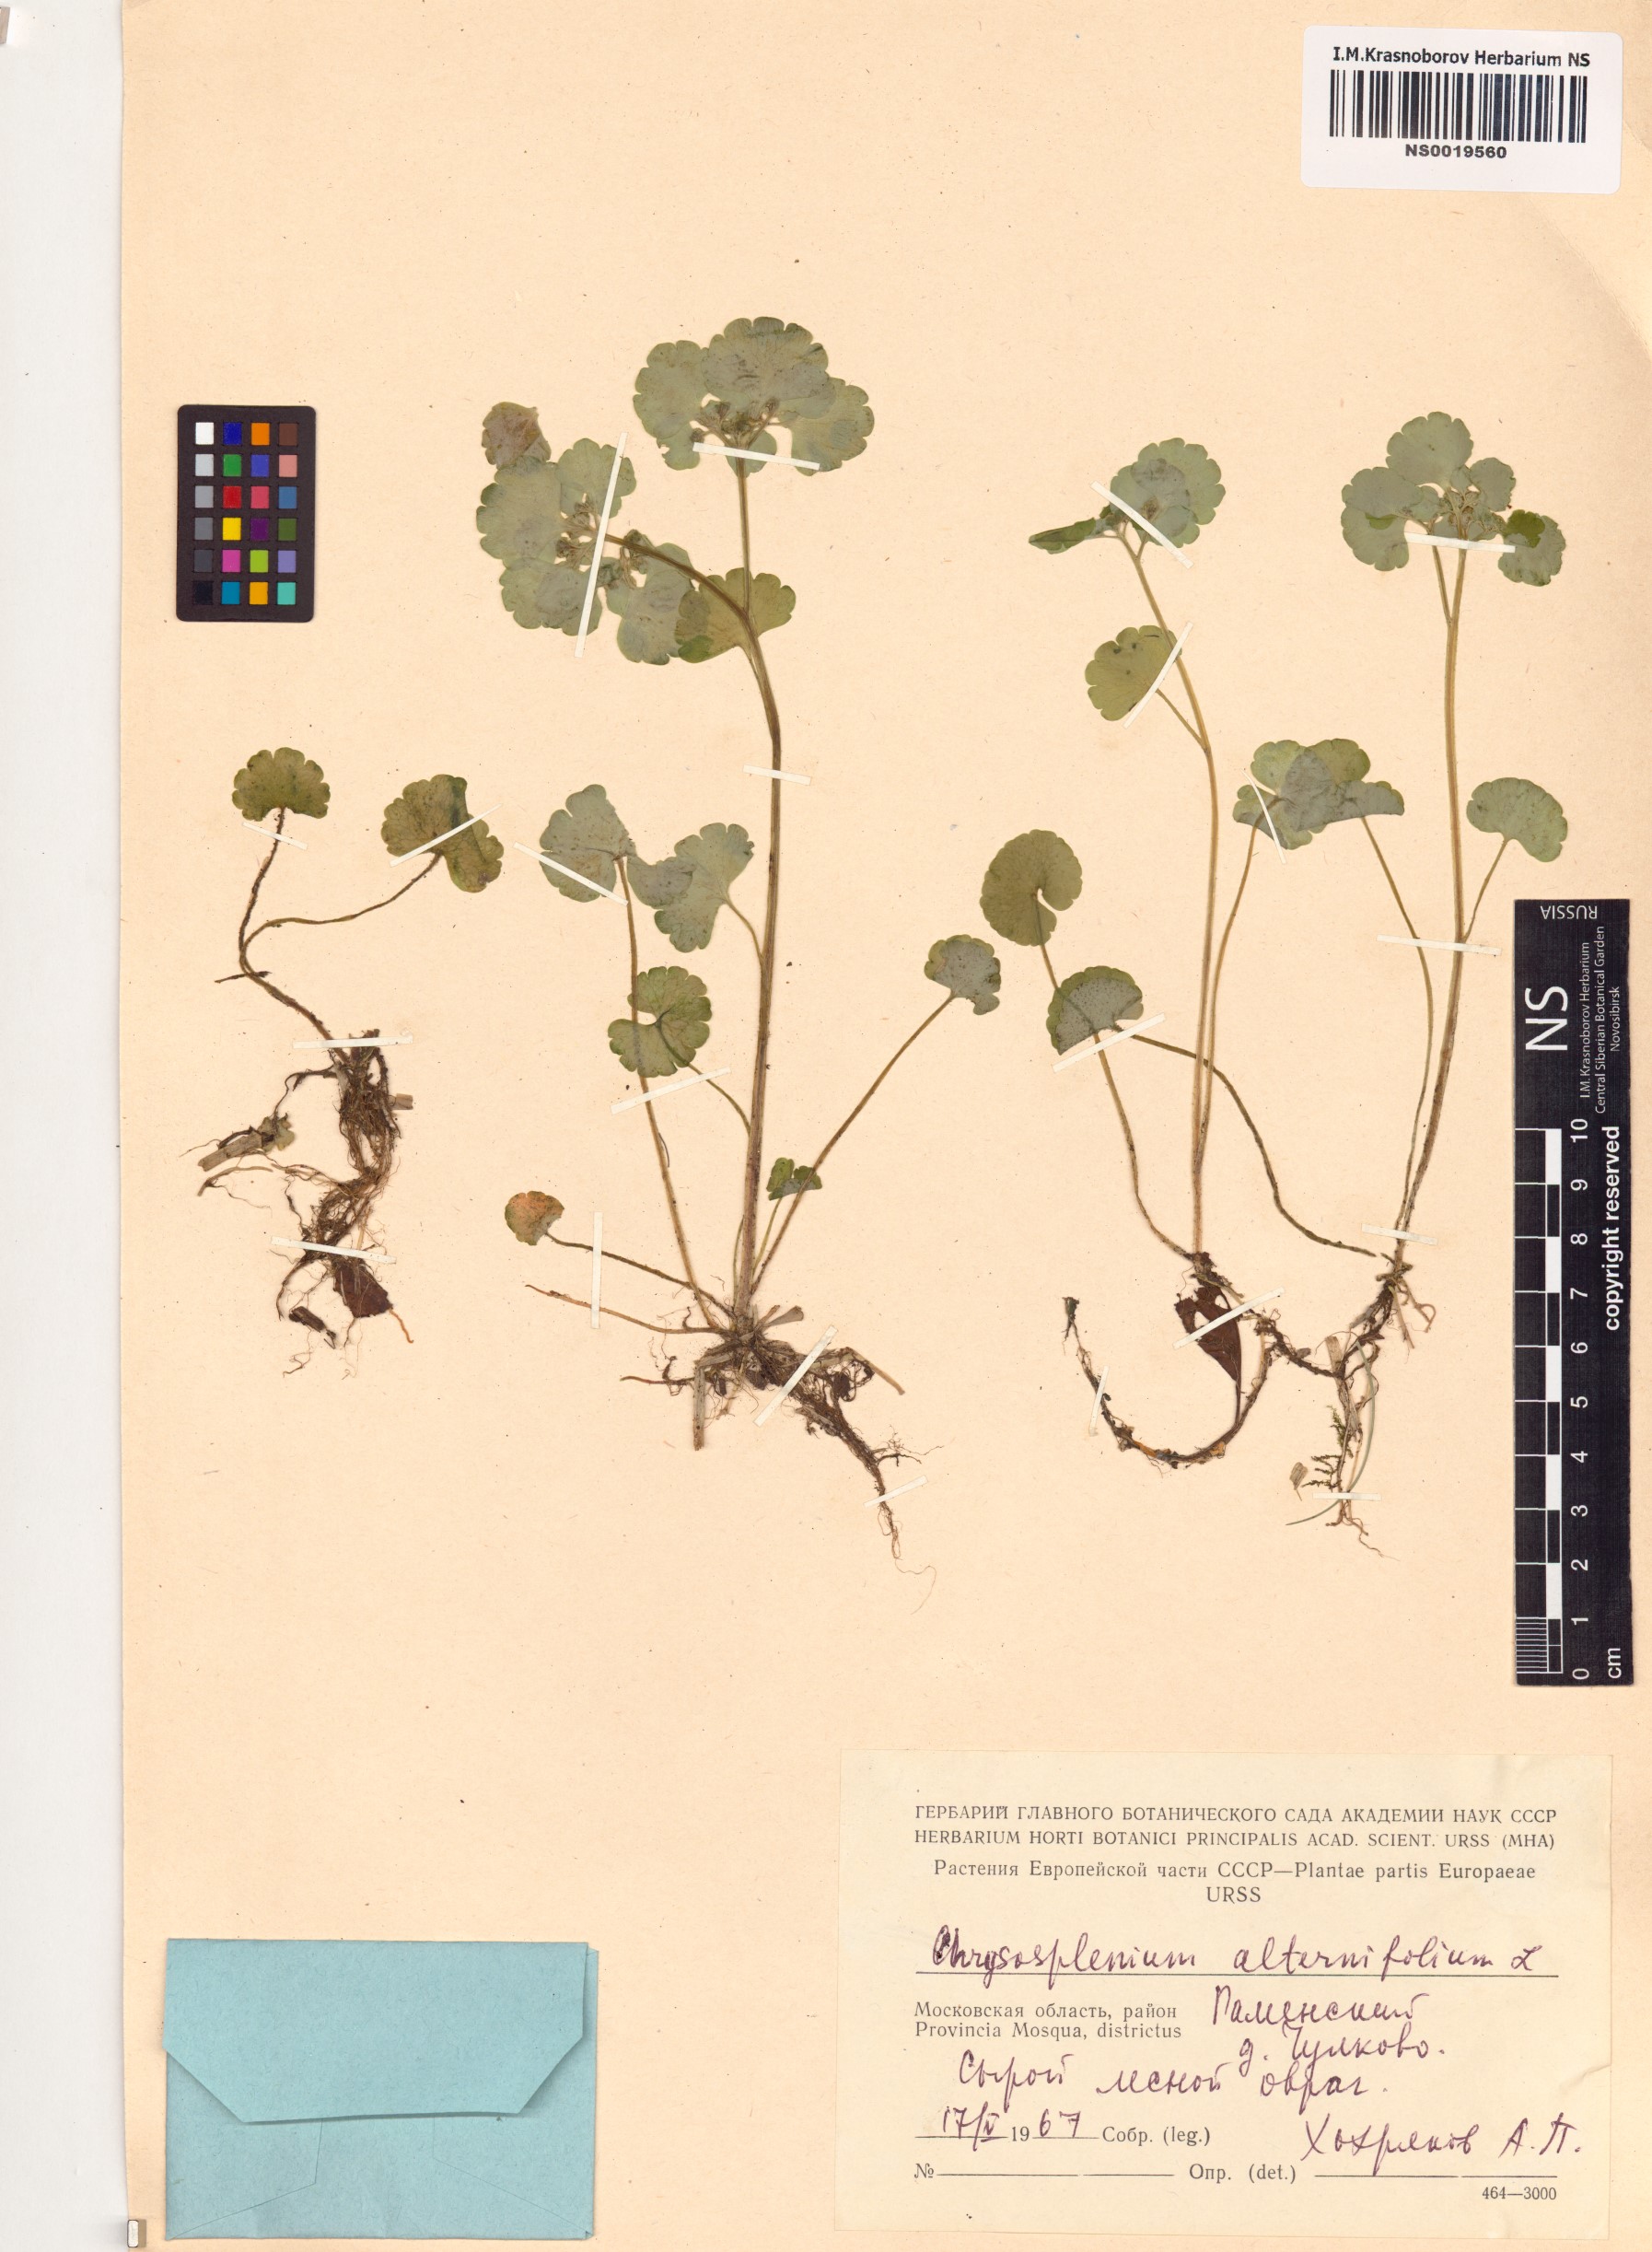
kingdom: Plantae
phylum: Tracheophyta
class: Magnoliopsida
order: Saxifragales
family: Saxifragaceae
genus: Chrysosplenium
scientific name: Chrysosplenium alternifolium
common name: Alternate-leaved golden-saxifrage
